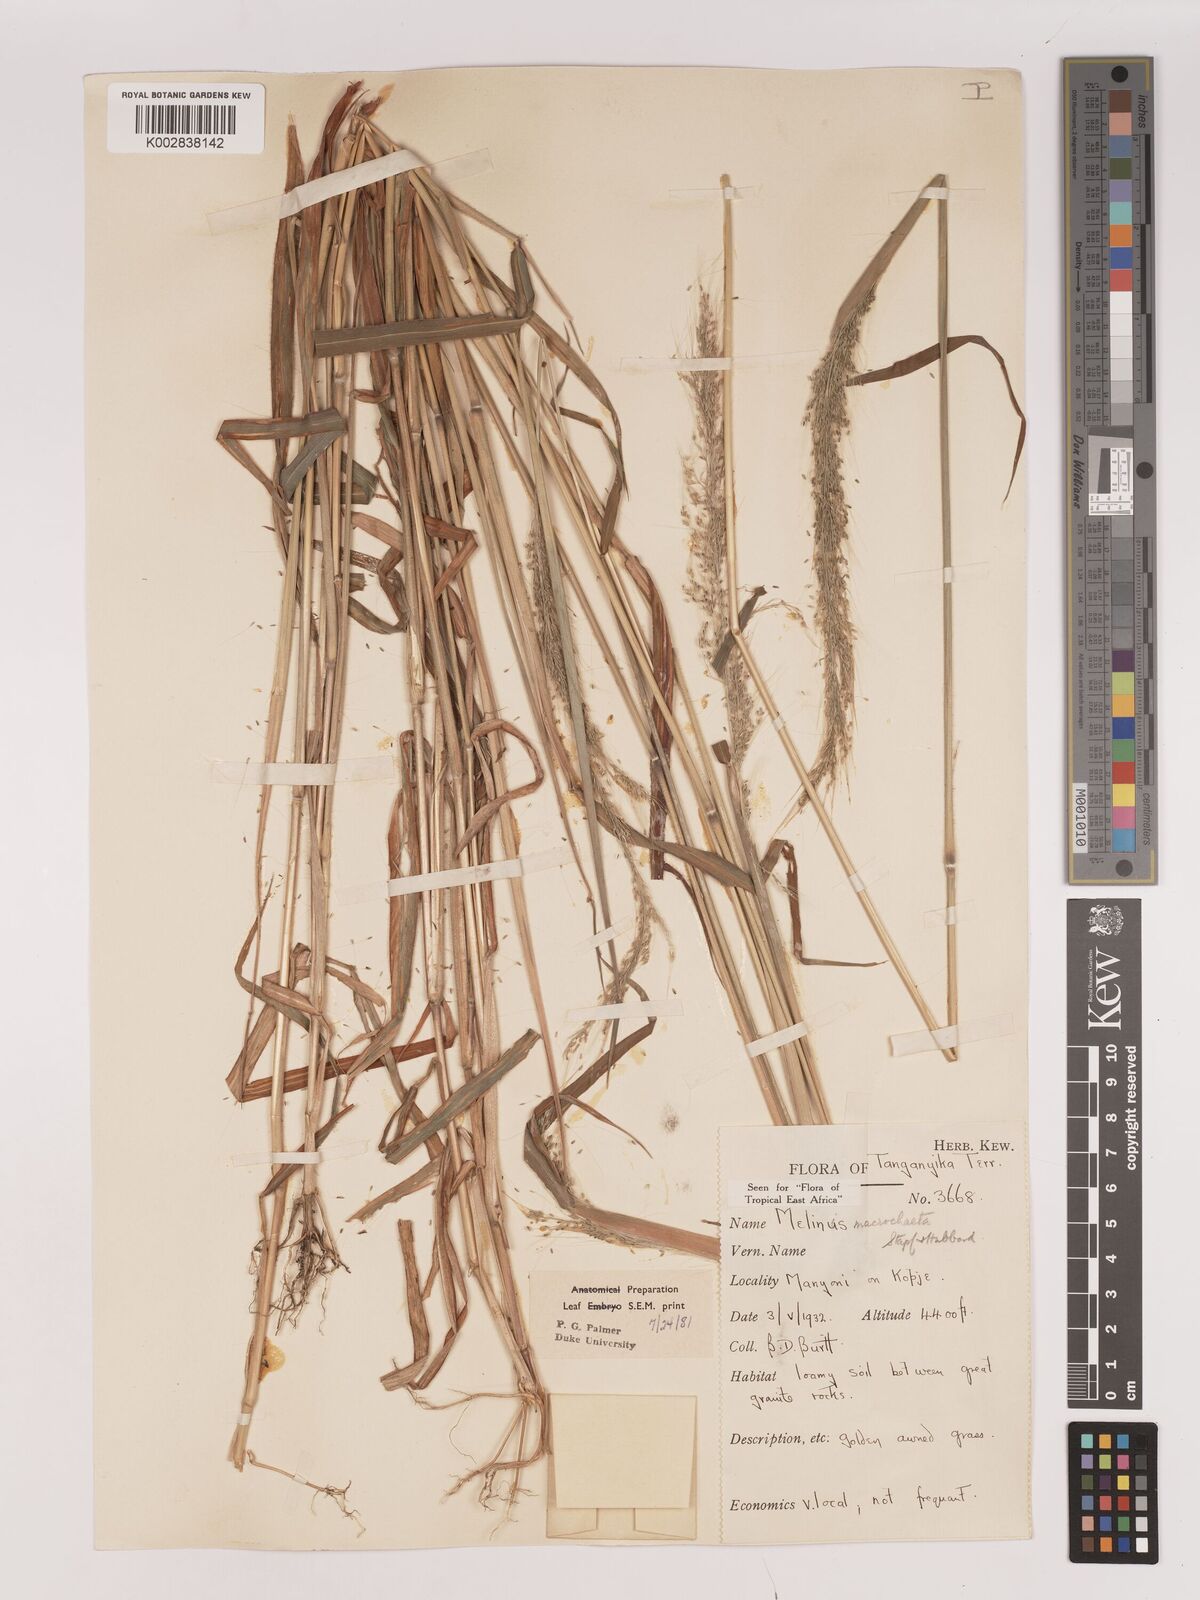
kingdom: Plantae
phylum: Tracheophyta
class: Liliopsida
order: Poales
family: Poaceae
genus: Melinis
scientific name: Melinis macrochaeta
